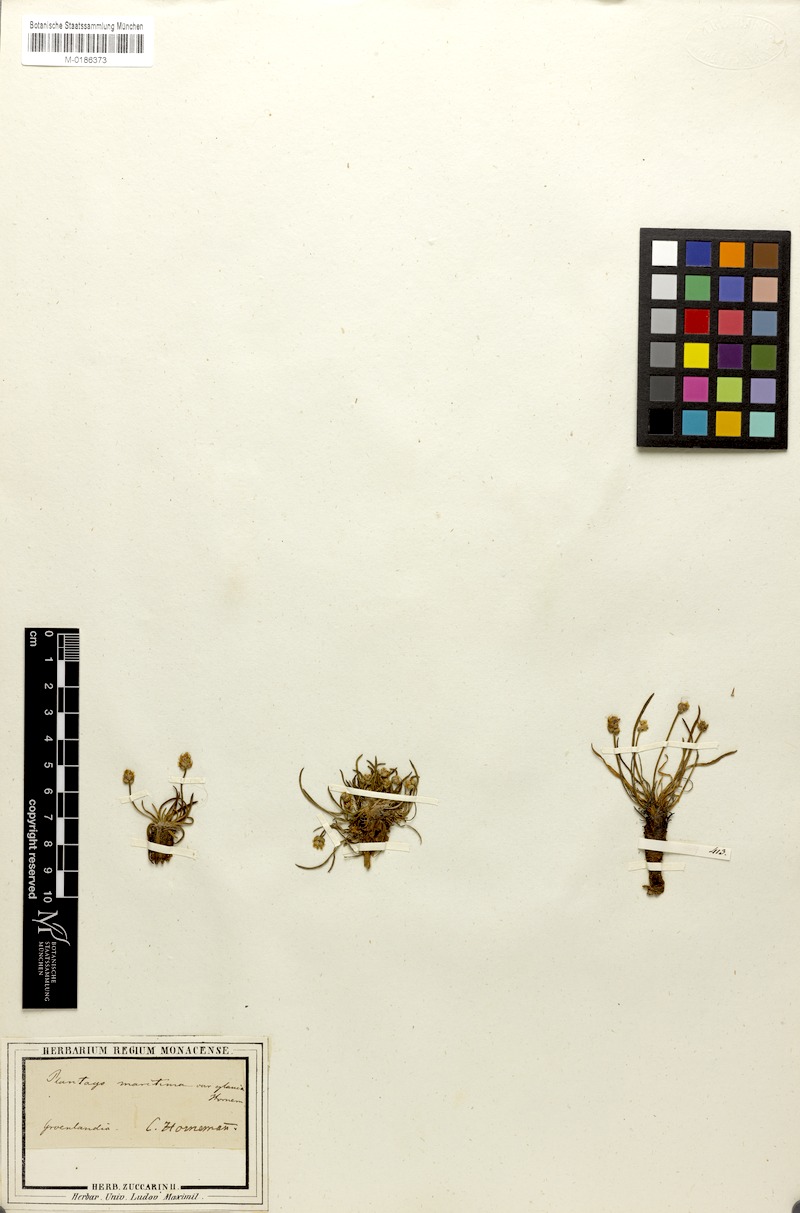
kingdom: Plantae
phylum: Tracheophyta
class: Magnoliopsida
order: Lamiales
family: Plantaginaceae
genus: Plantago
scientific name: Plantago maritima
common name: Sea plantain
